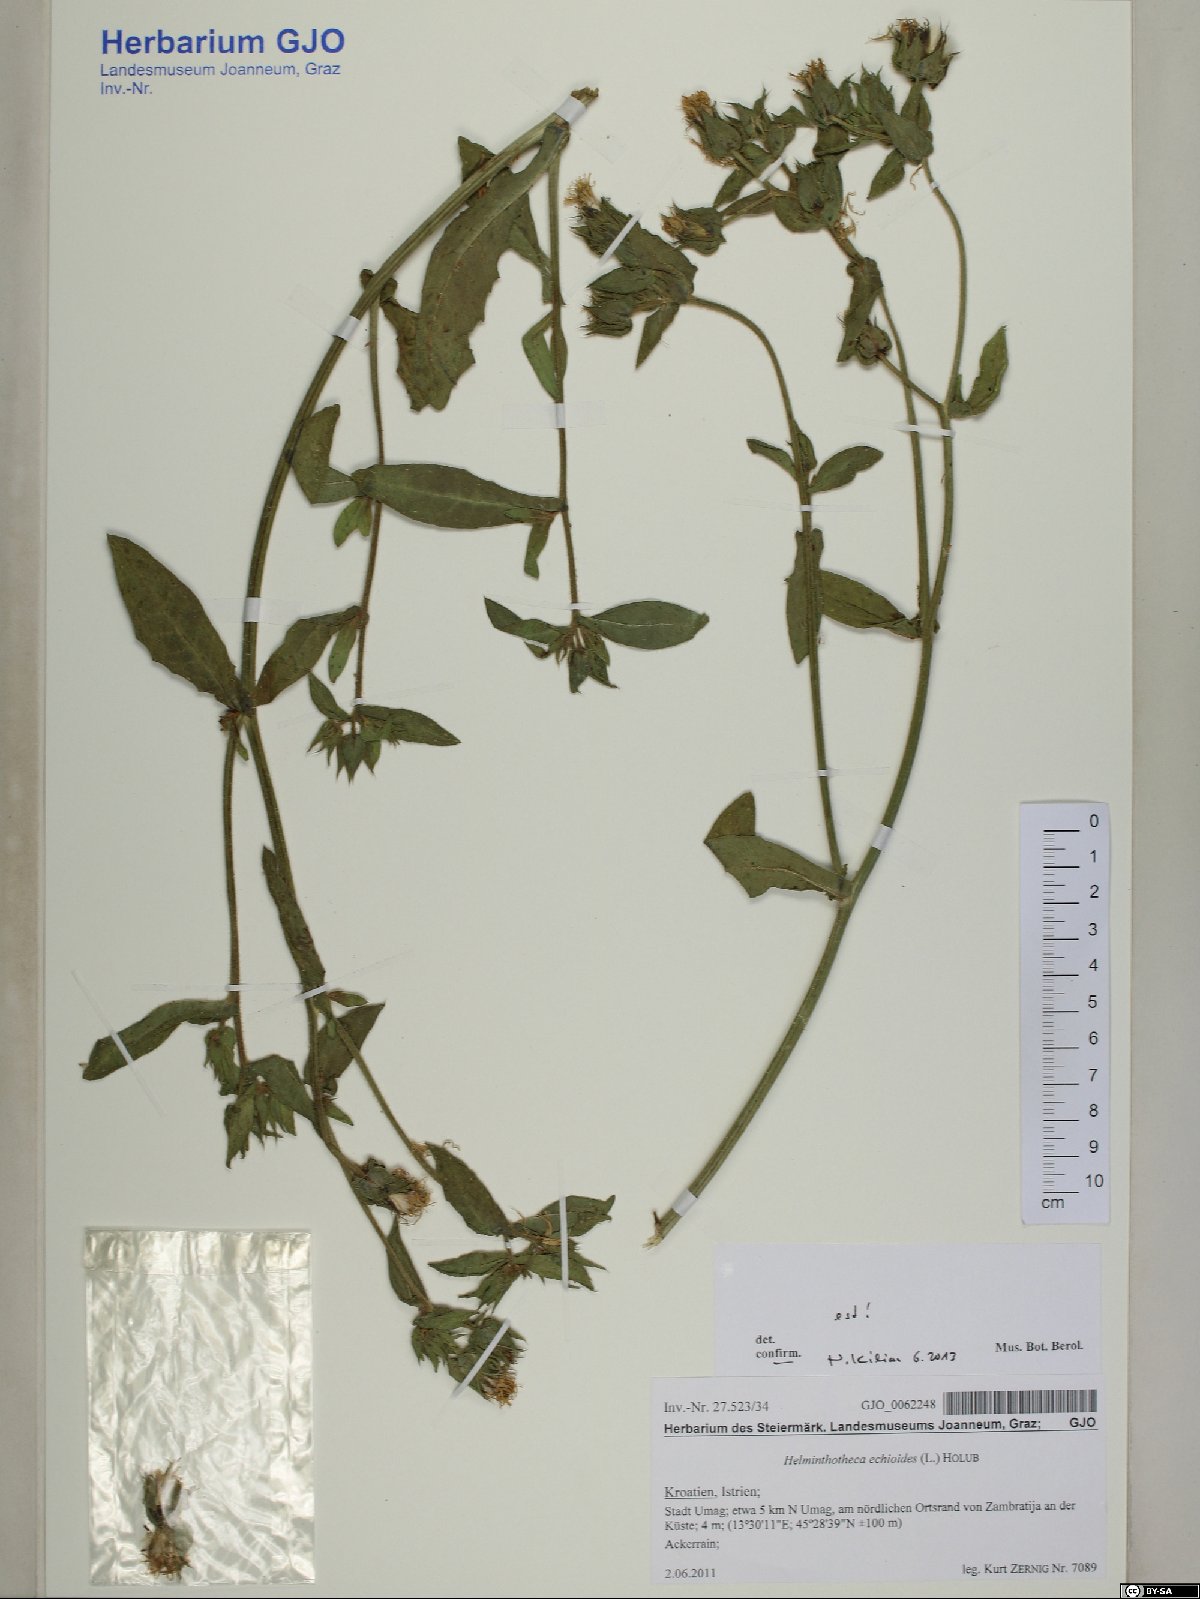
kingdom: Plantae
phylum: Tracheophyta
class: Magnoliopsida
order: Asterales
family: Asteraceae
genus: Helminthotheca
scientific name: Helminthotheca echioides
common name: Ox-tongue
